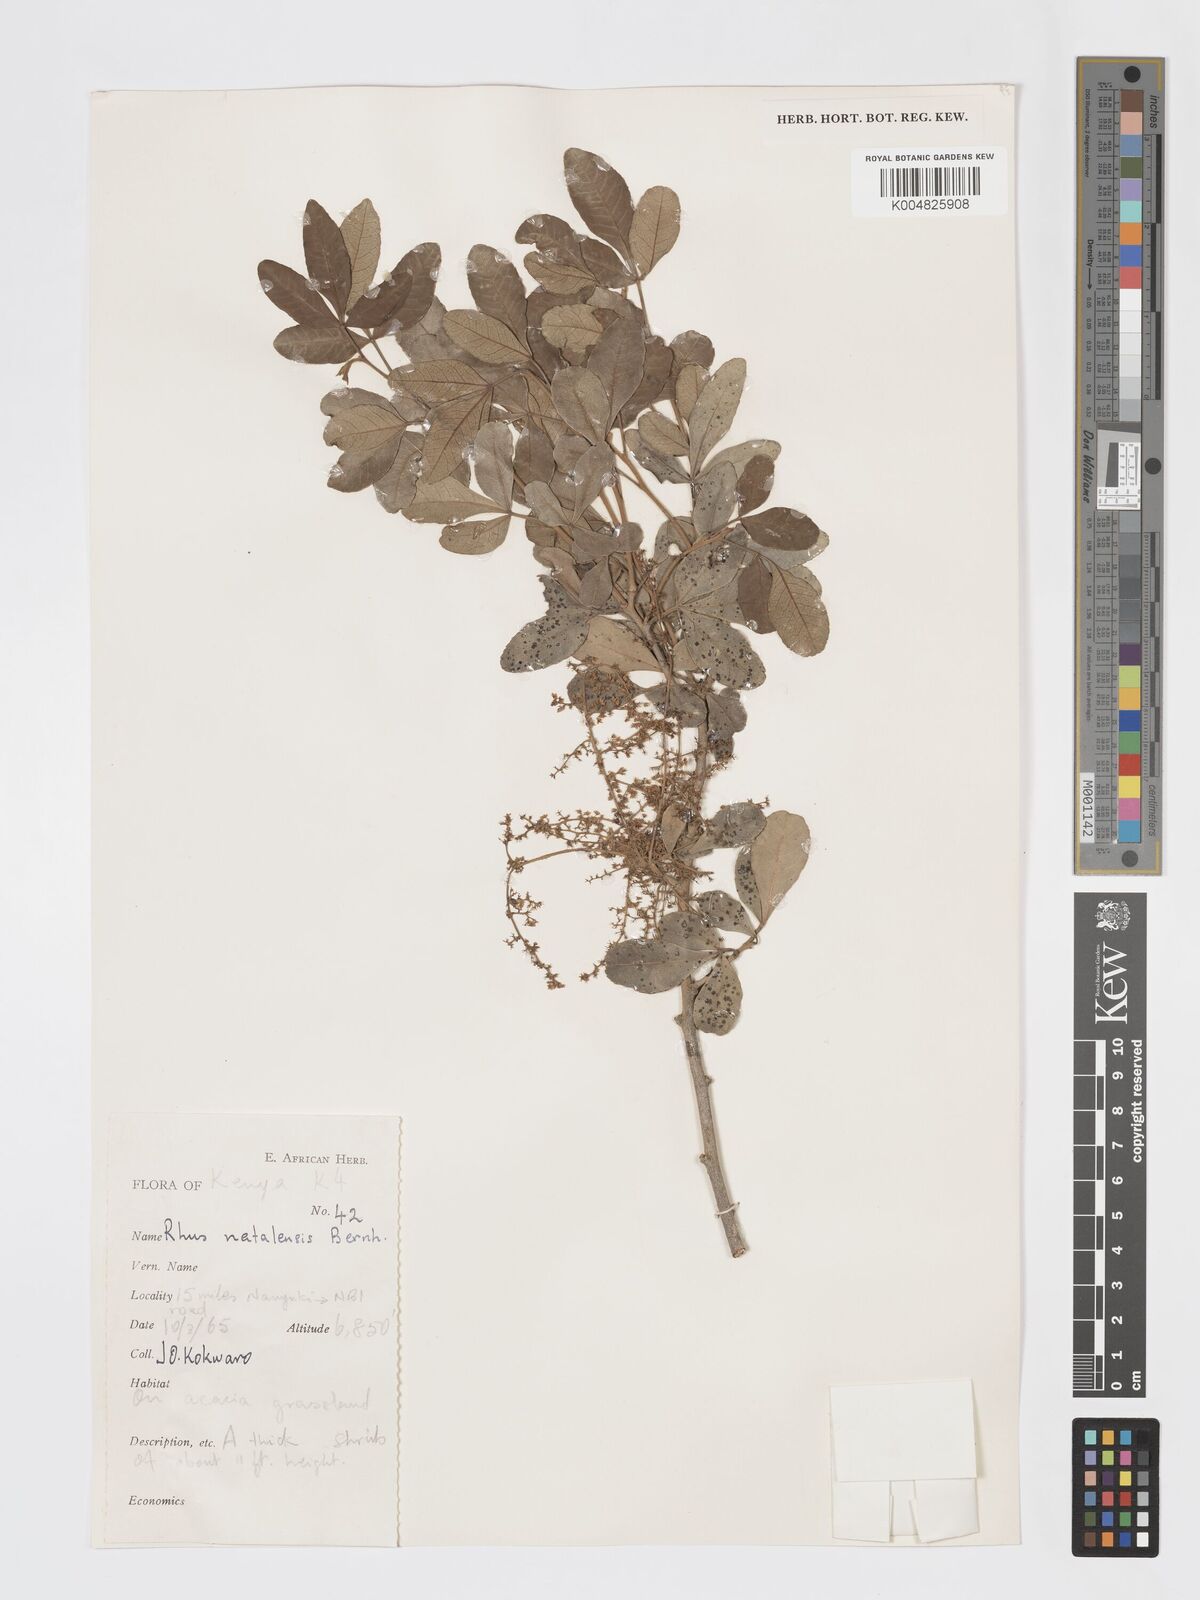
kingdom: Plantae
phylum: Tracheophyta
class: Magnoliopsida
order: Sapindales
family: Anacardiaceae
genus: Searsia
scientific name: Searsia natalensis
